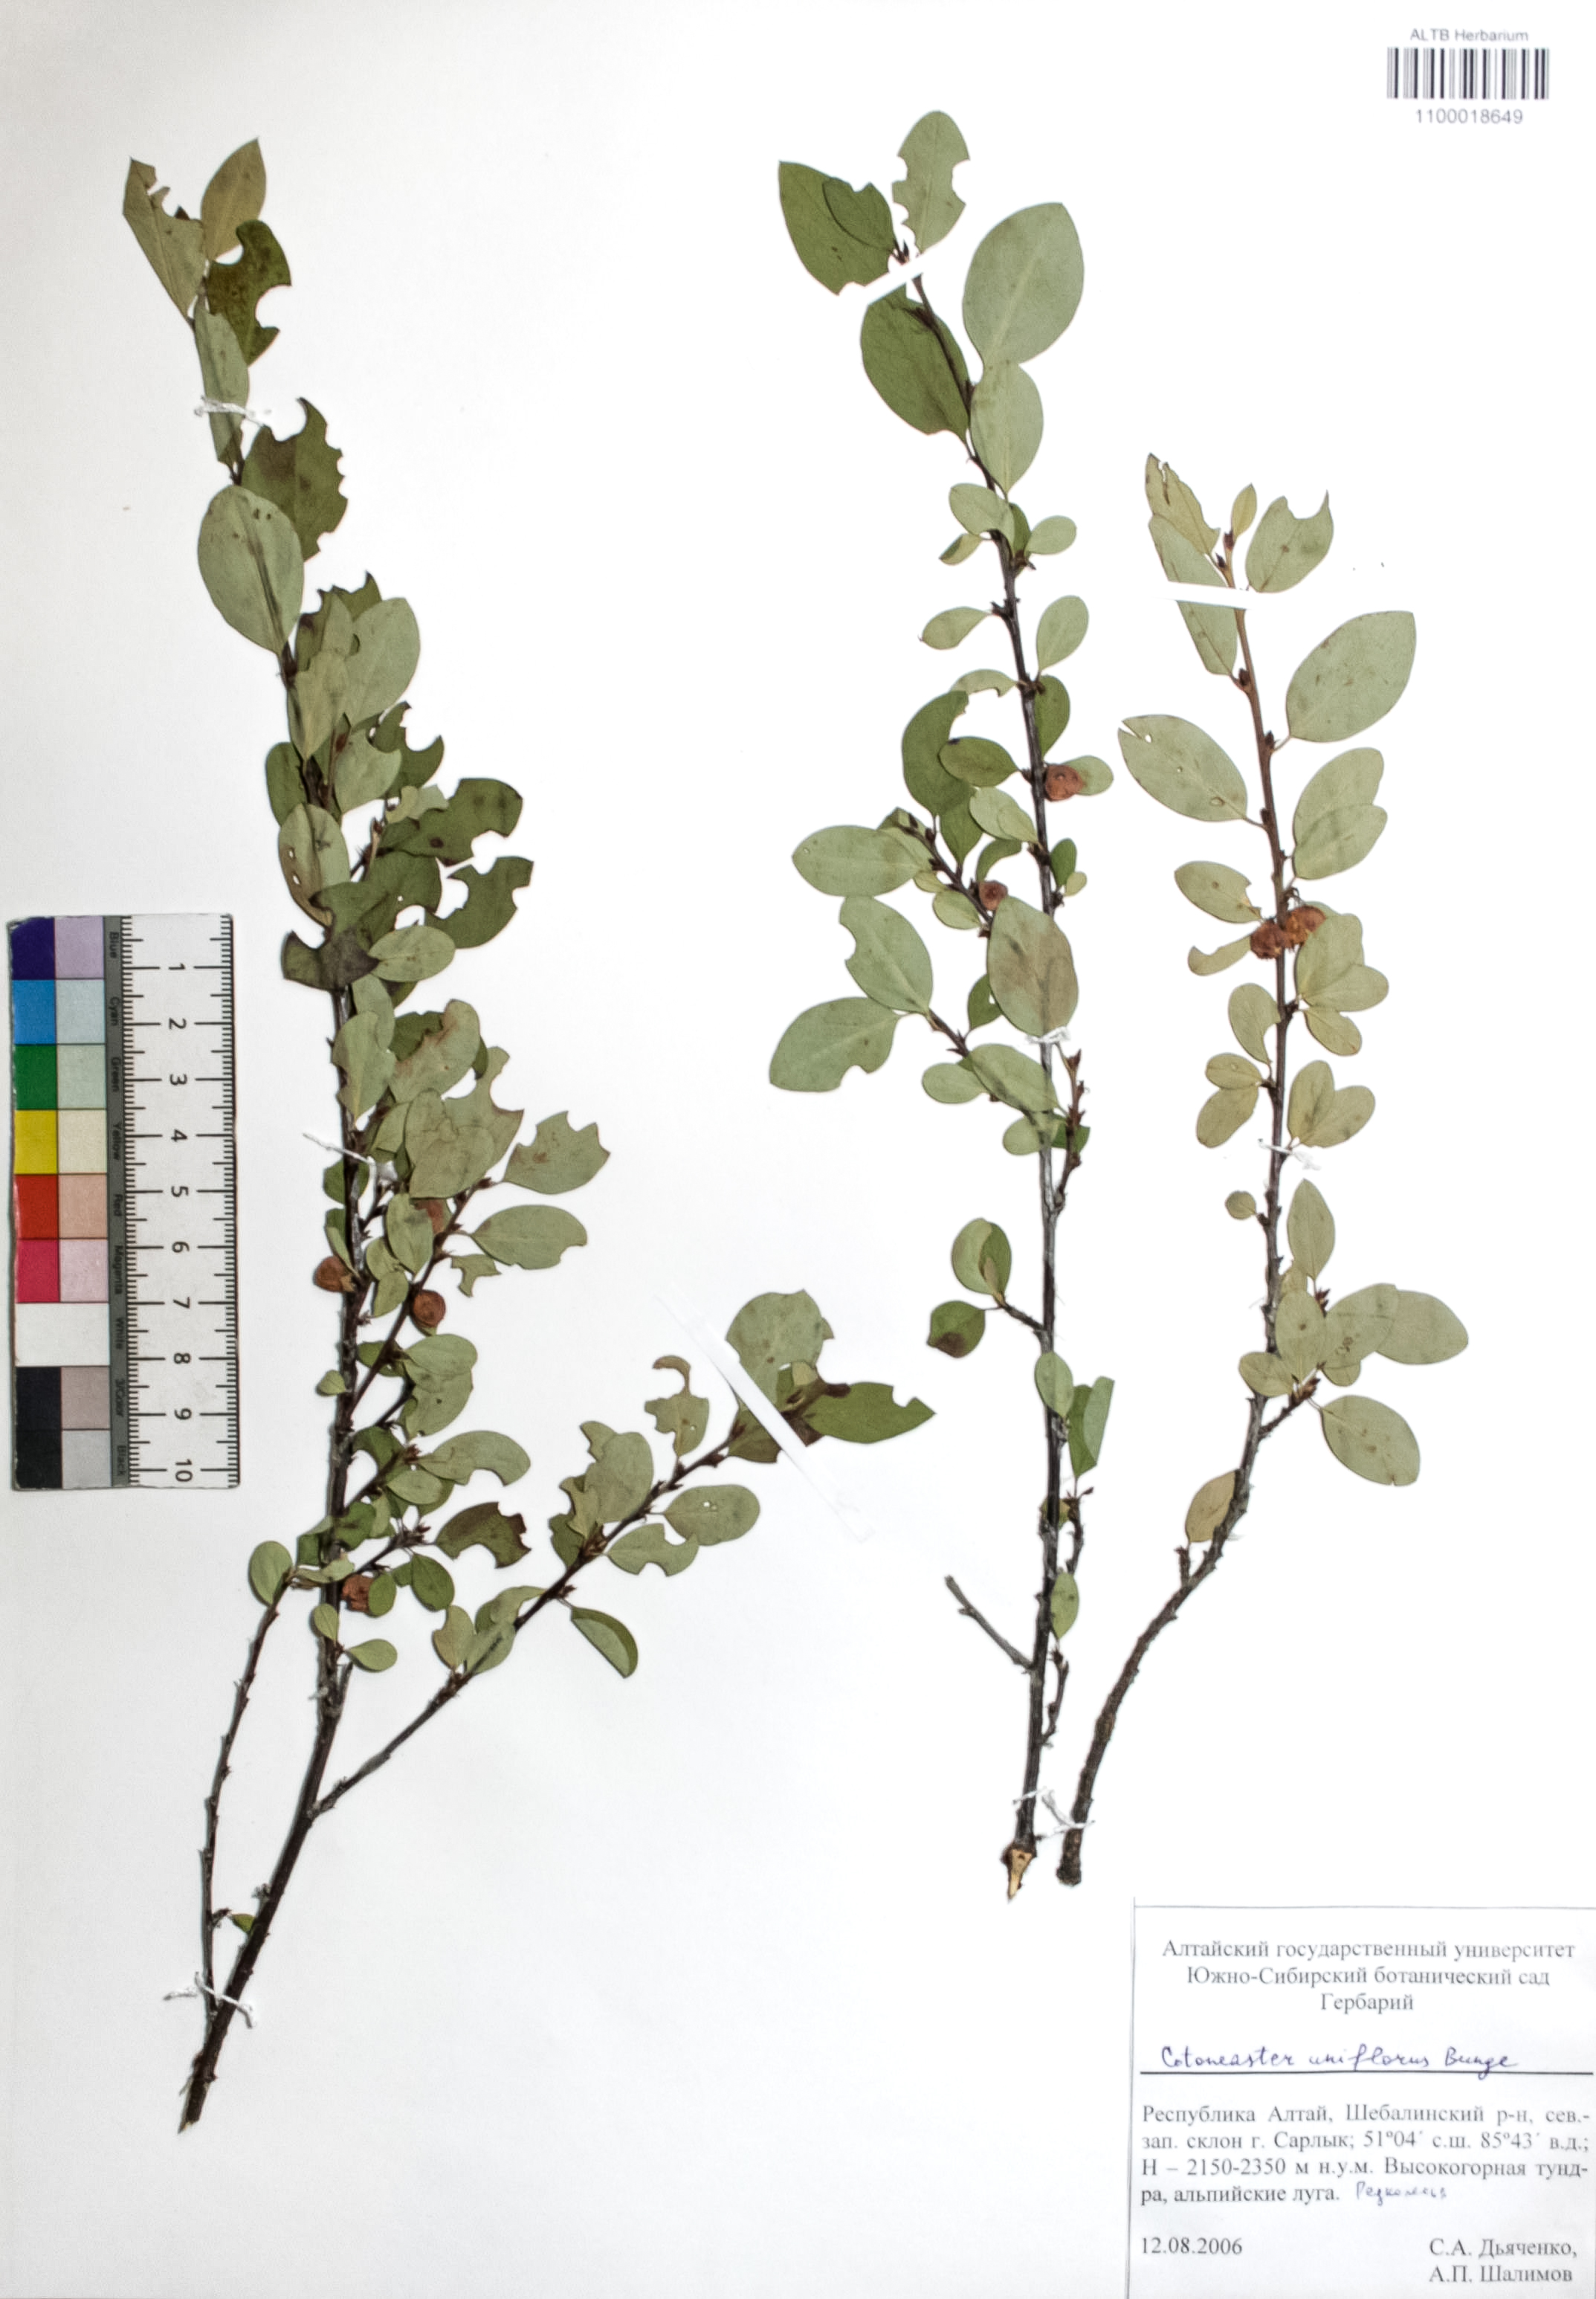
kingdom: Plantae
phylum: Tracheophyta
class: Magnoliopsida
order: Rosales
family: Rosaceae
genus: Cotoneaster
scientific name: Cotoneaster uniflorus
